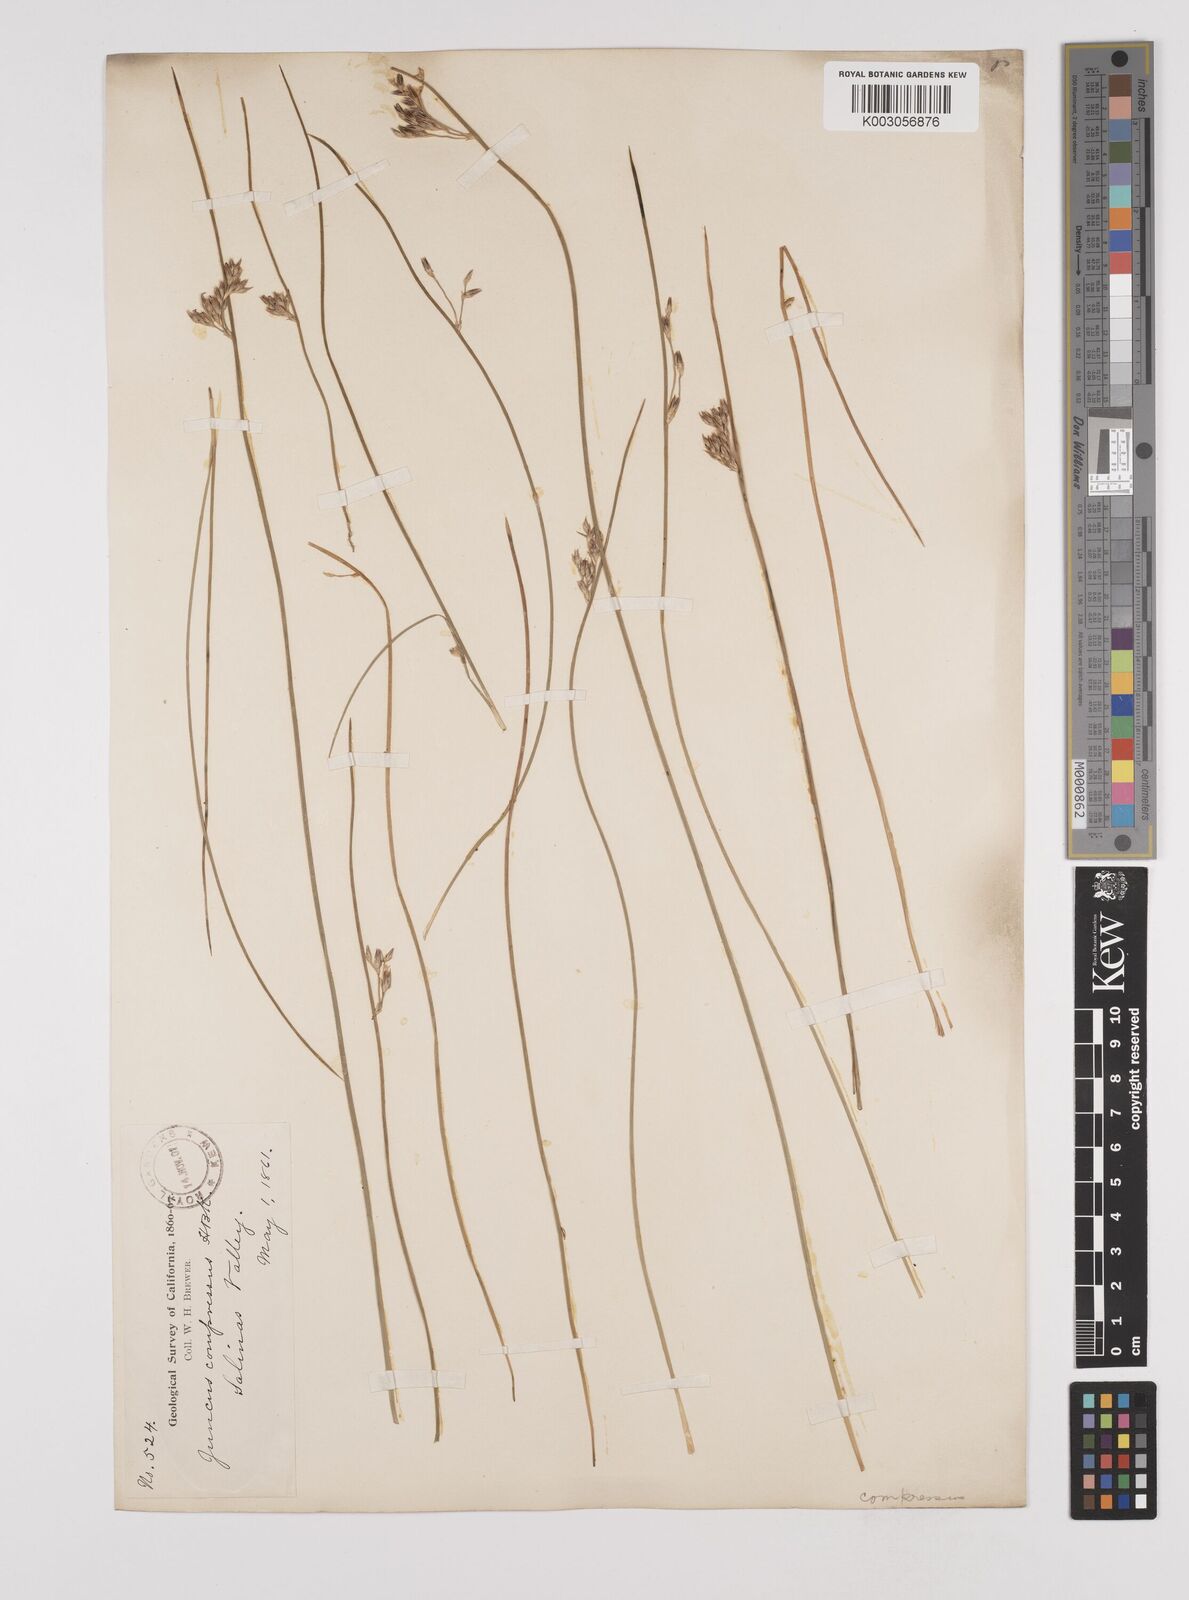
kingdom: Plantae
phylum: Tracheophyta
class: Liliopsida
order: Poales
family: Juncaceae
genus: Juncus
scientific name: Juncus balticus
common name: Baltic rush
